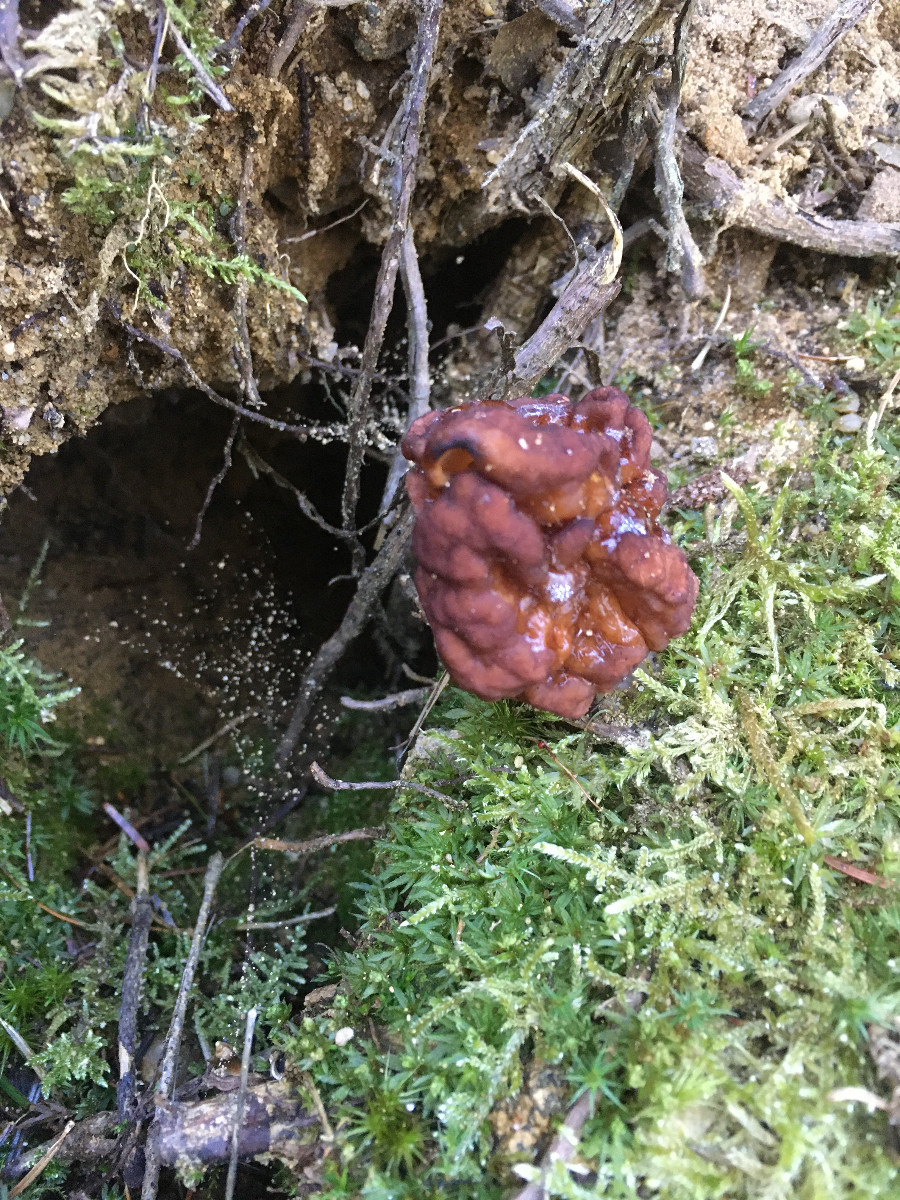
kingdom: Fungi
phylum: Ascomycota
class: Pezizomycetes
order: Pezizales
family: Discinaceae
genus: Gyromitra
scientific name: Gyromitra esculenta
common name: ægte stenmorkel
